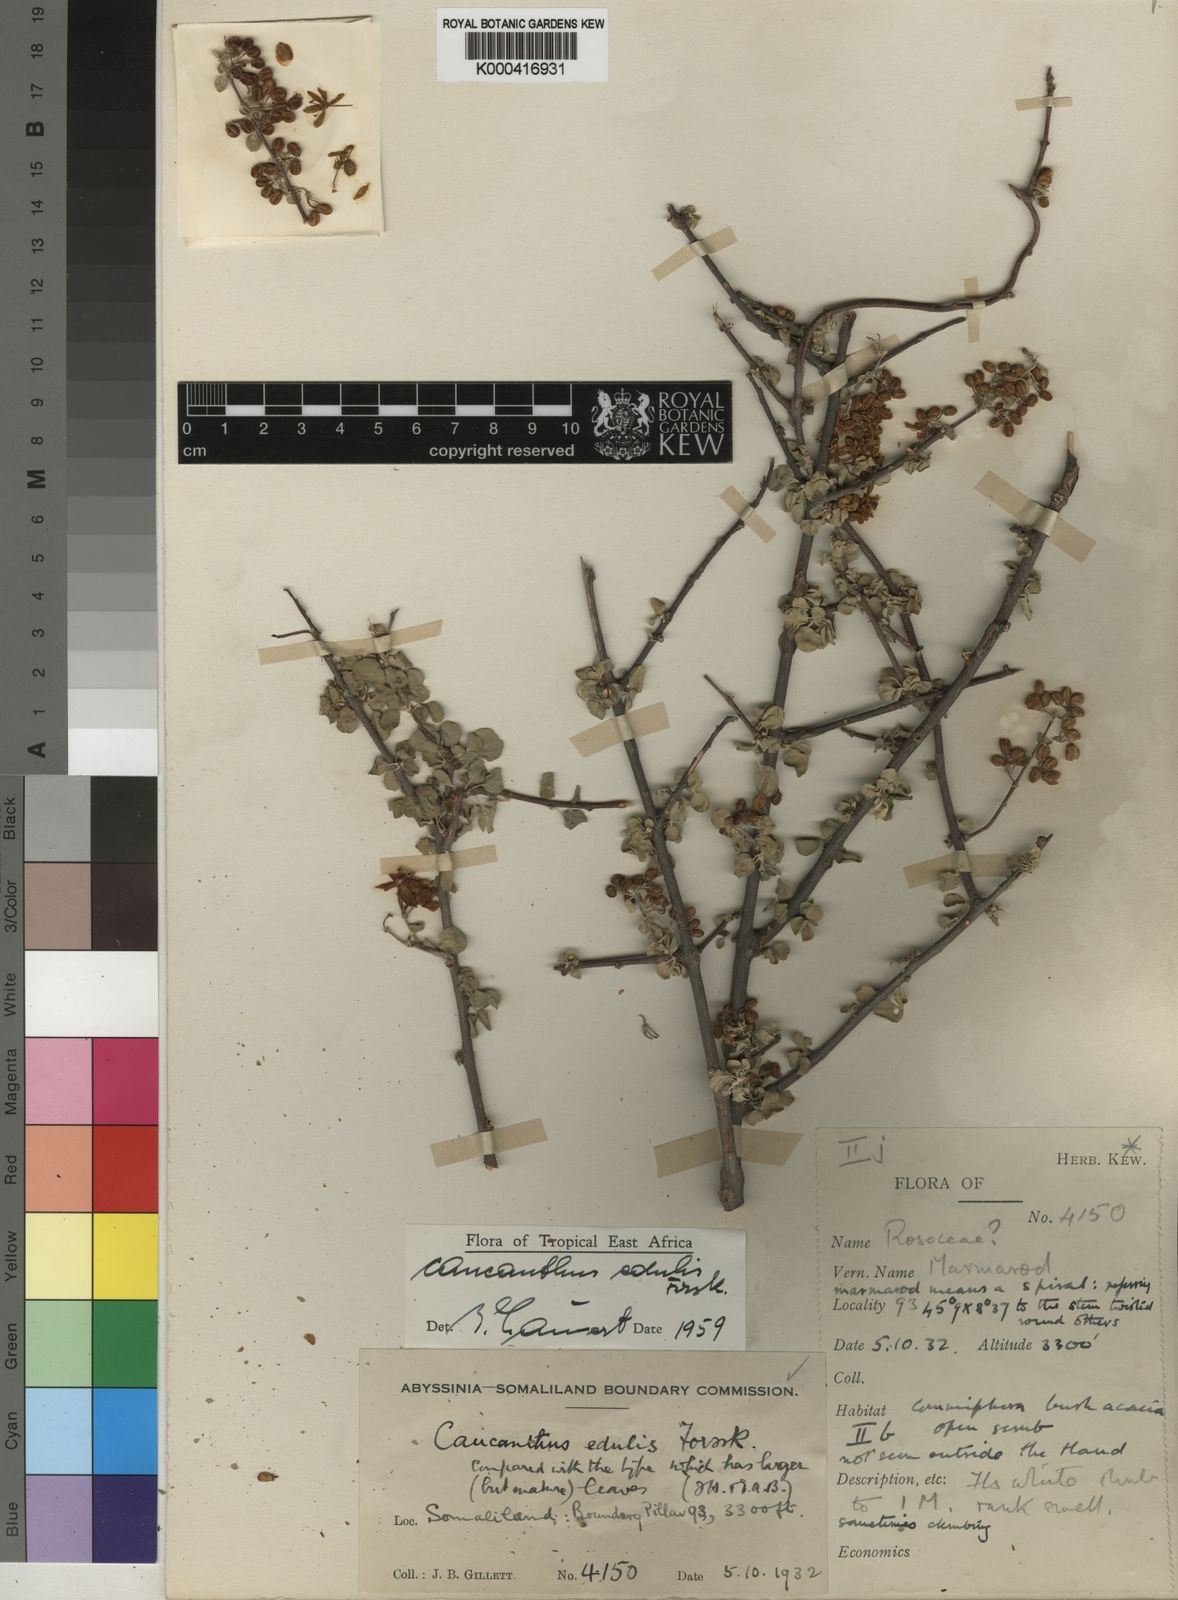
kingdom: Plantae
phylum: Tracheophyta
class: Magnoliopsida
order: Malpighiales
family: Malpighiaceae
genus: Caucanthus
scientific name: Caucanthus edulis
